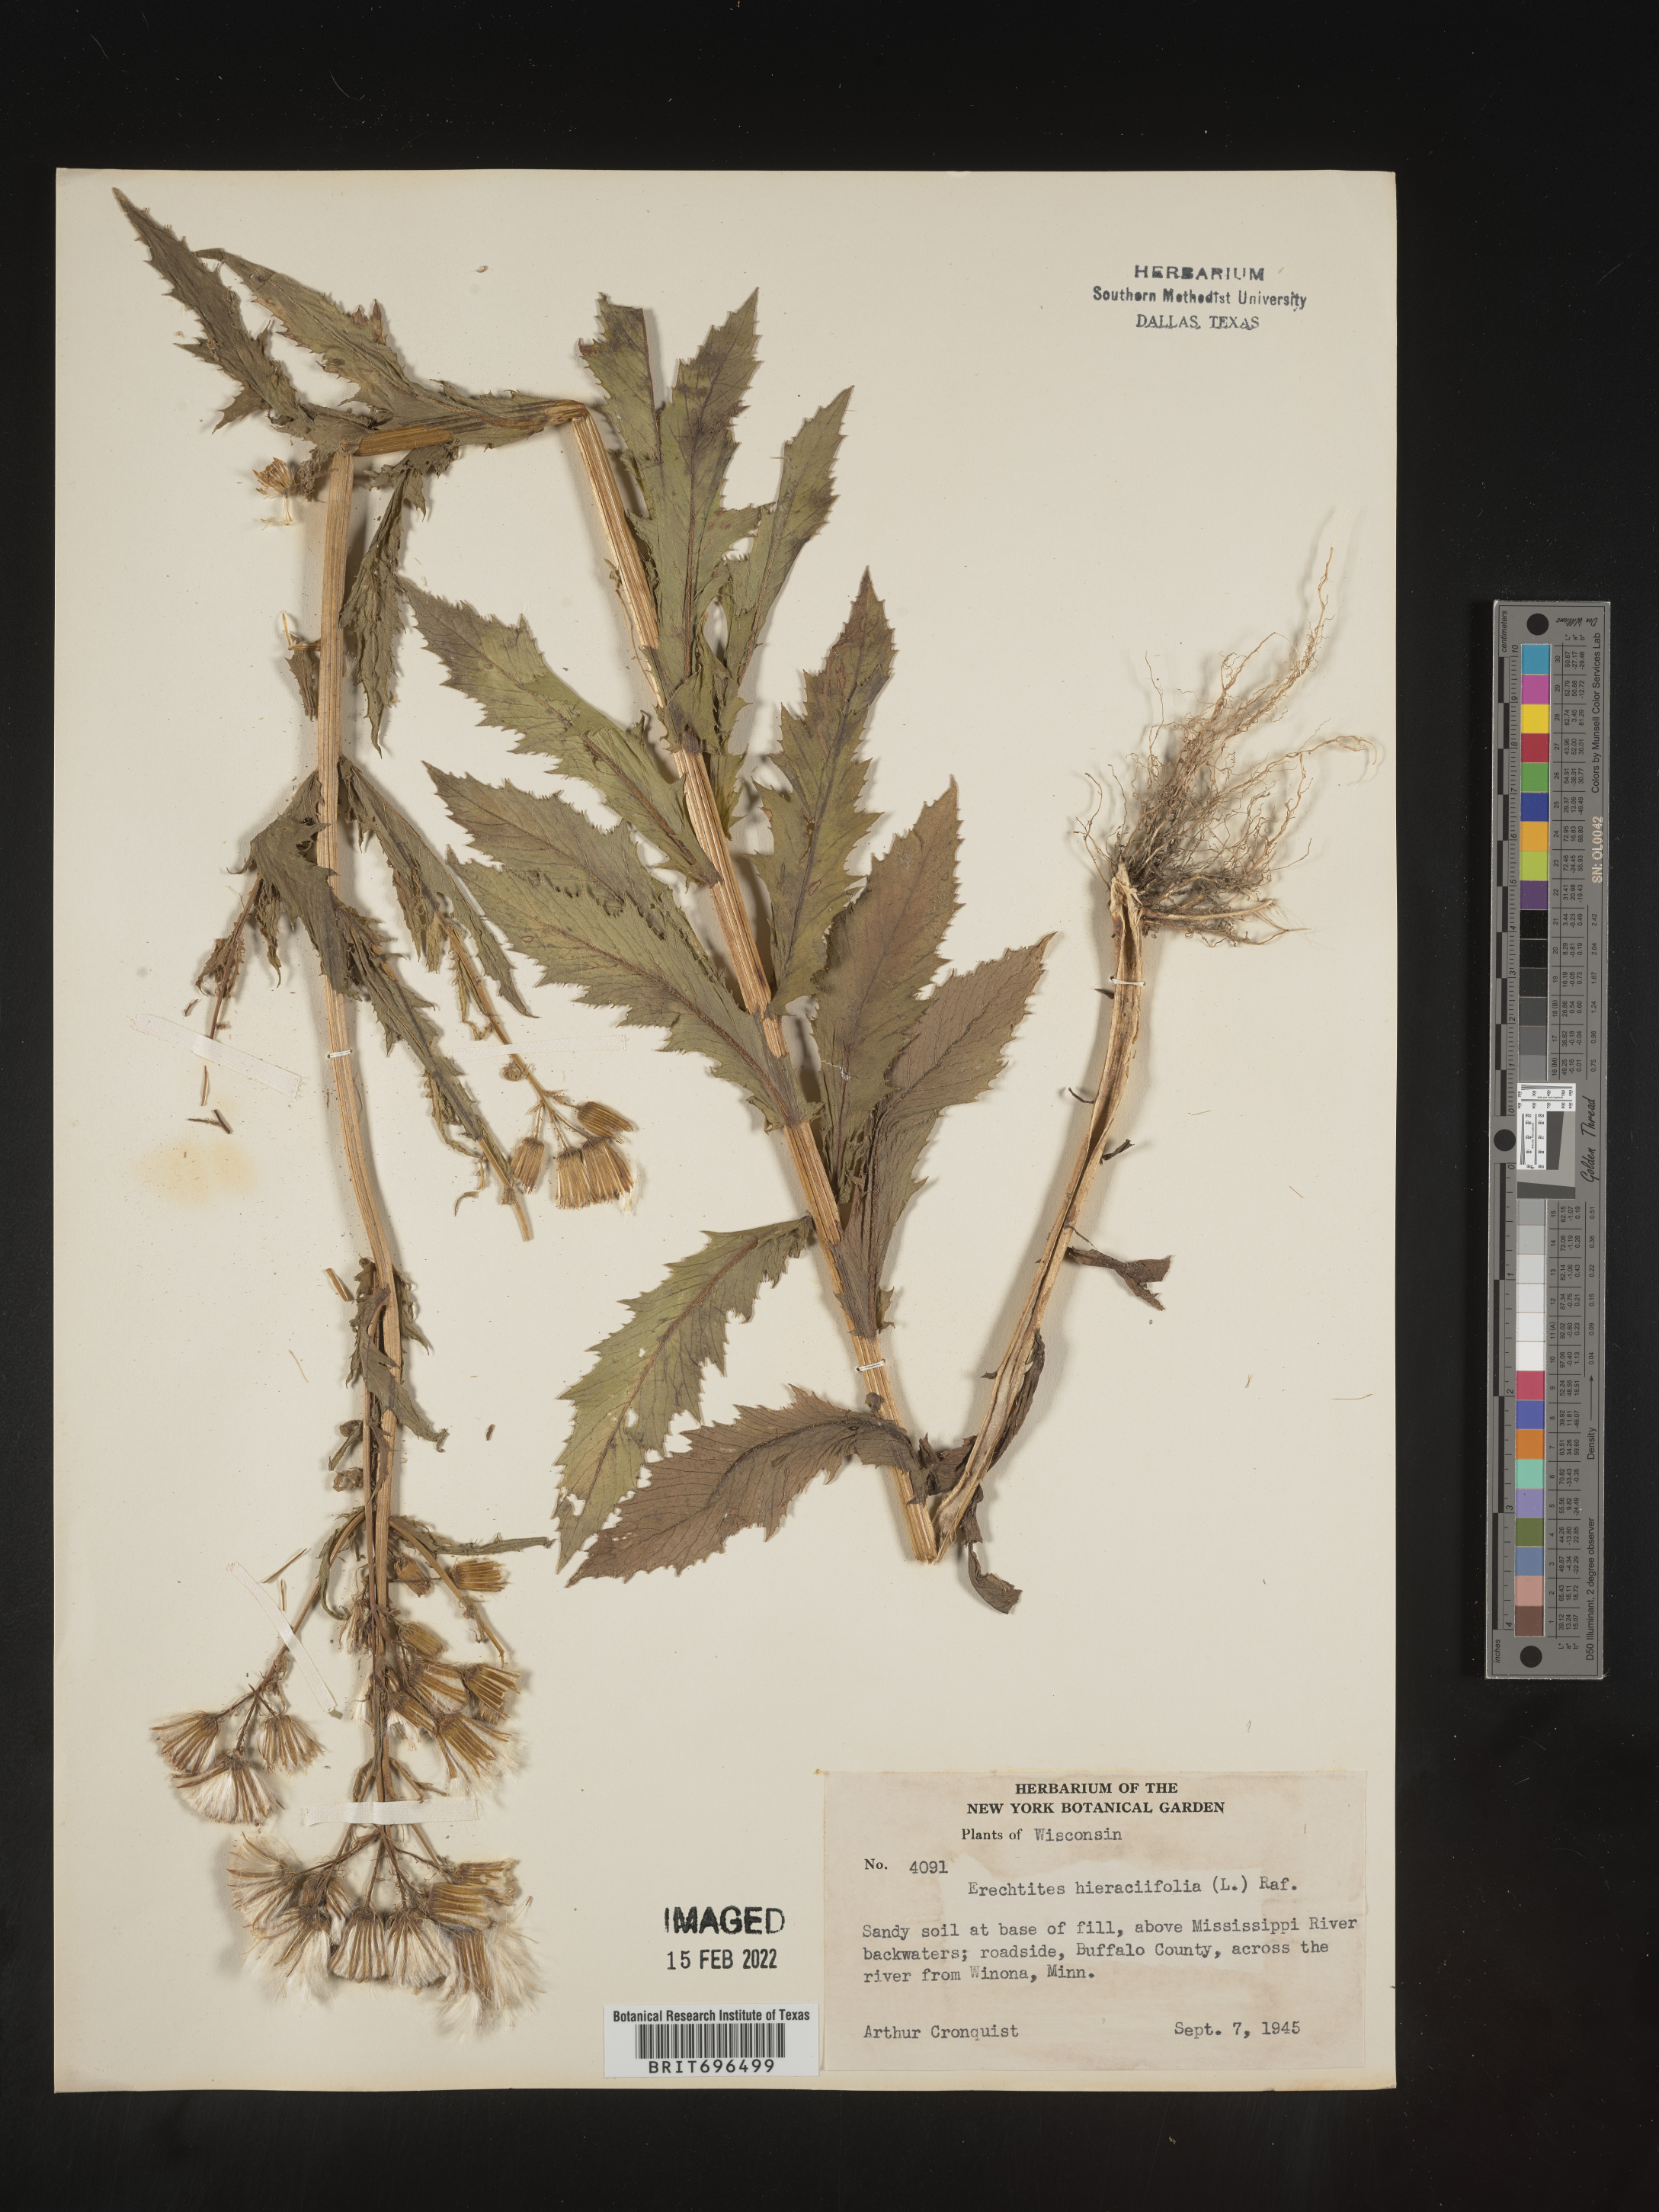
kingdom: Plantae
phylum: Tracheophyta
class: Magnoliopsida
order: Asterales
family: Asteraceae
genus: Erechtites
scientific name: Erechtites hieraciifolius
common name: American burnweed
